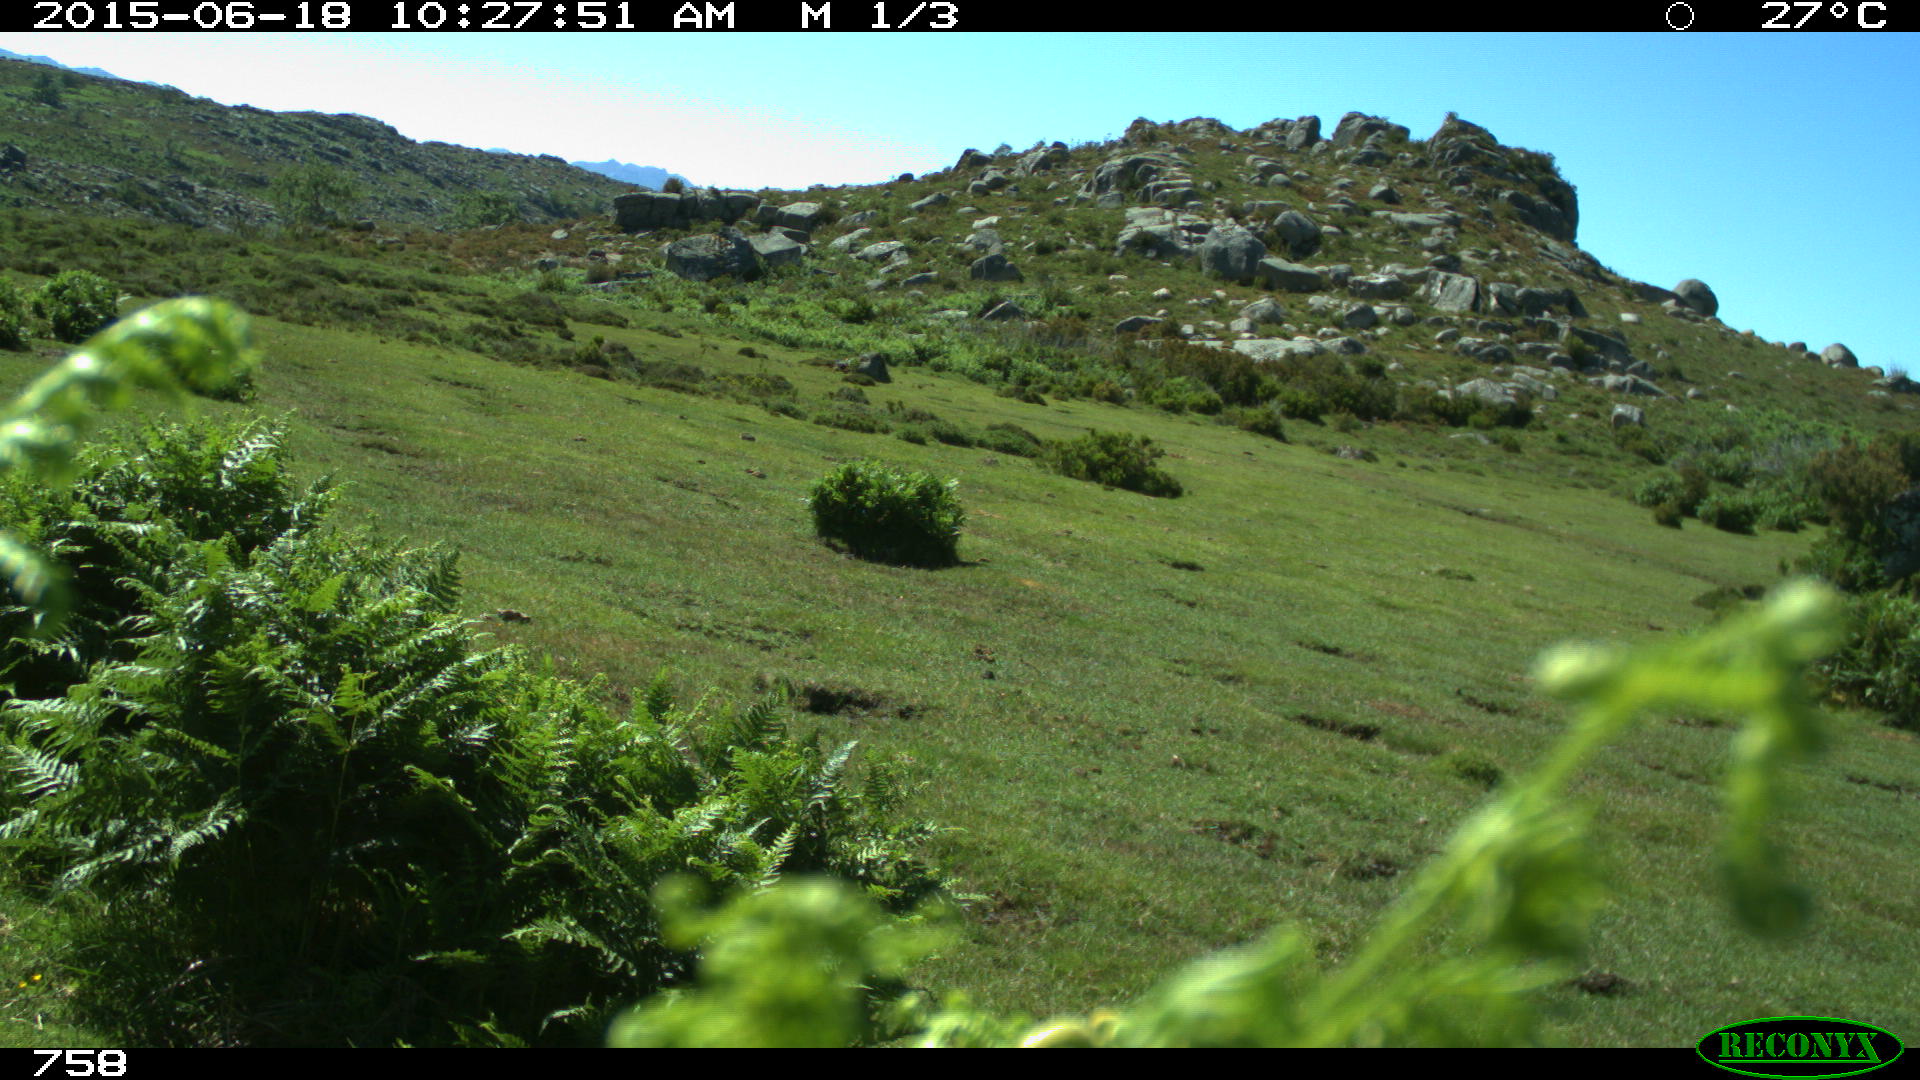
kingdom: Animalia
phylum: Chordata
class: Mammalia
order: Artiodactyla
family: Bovidae
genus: Bos
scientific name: Bos taurus
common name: Domesticated cattle
